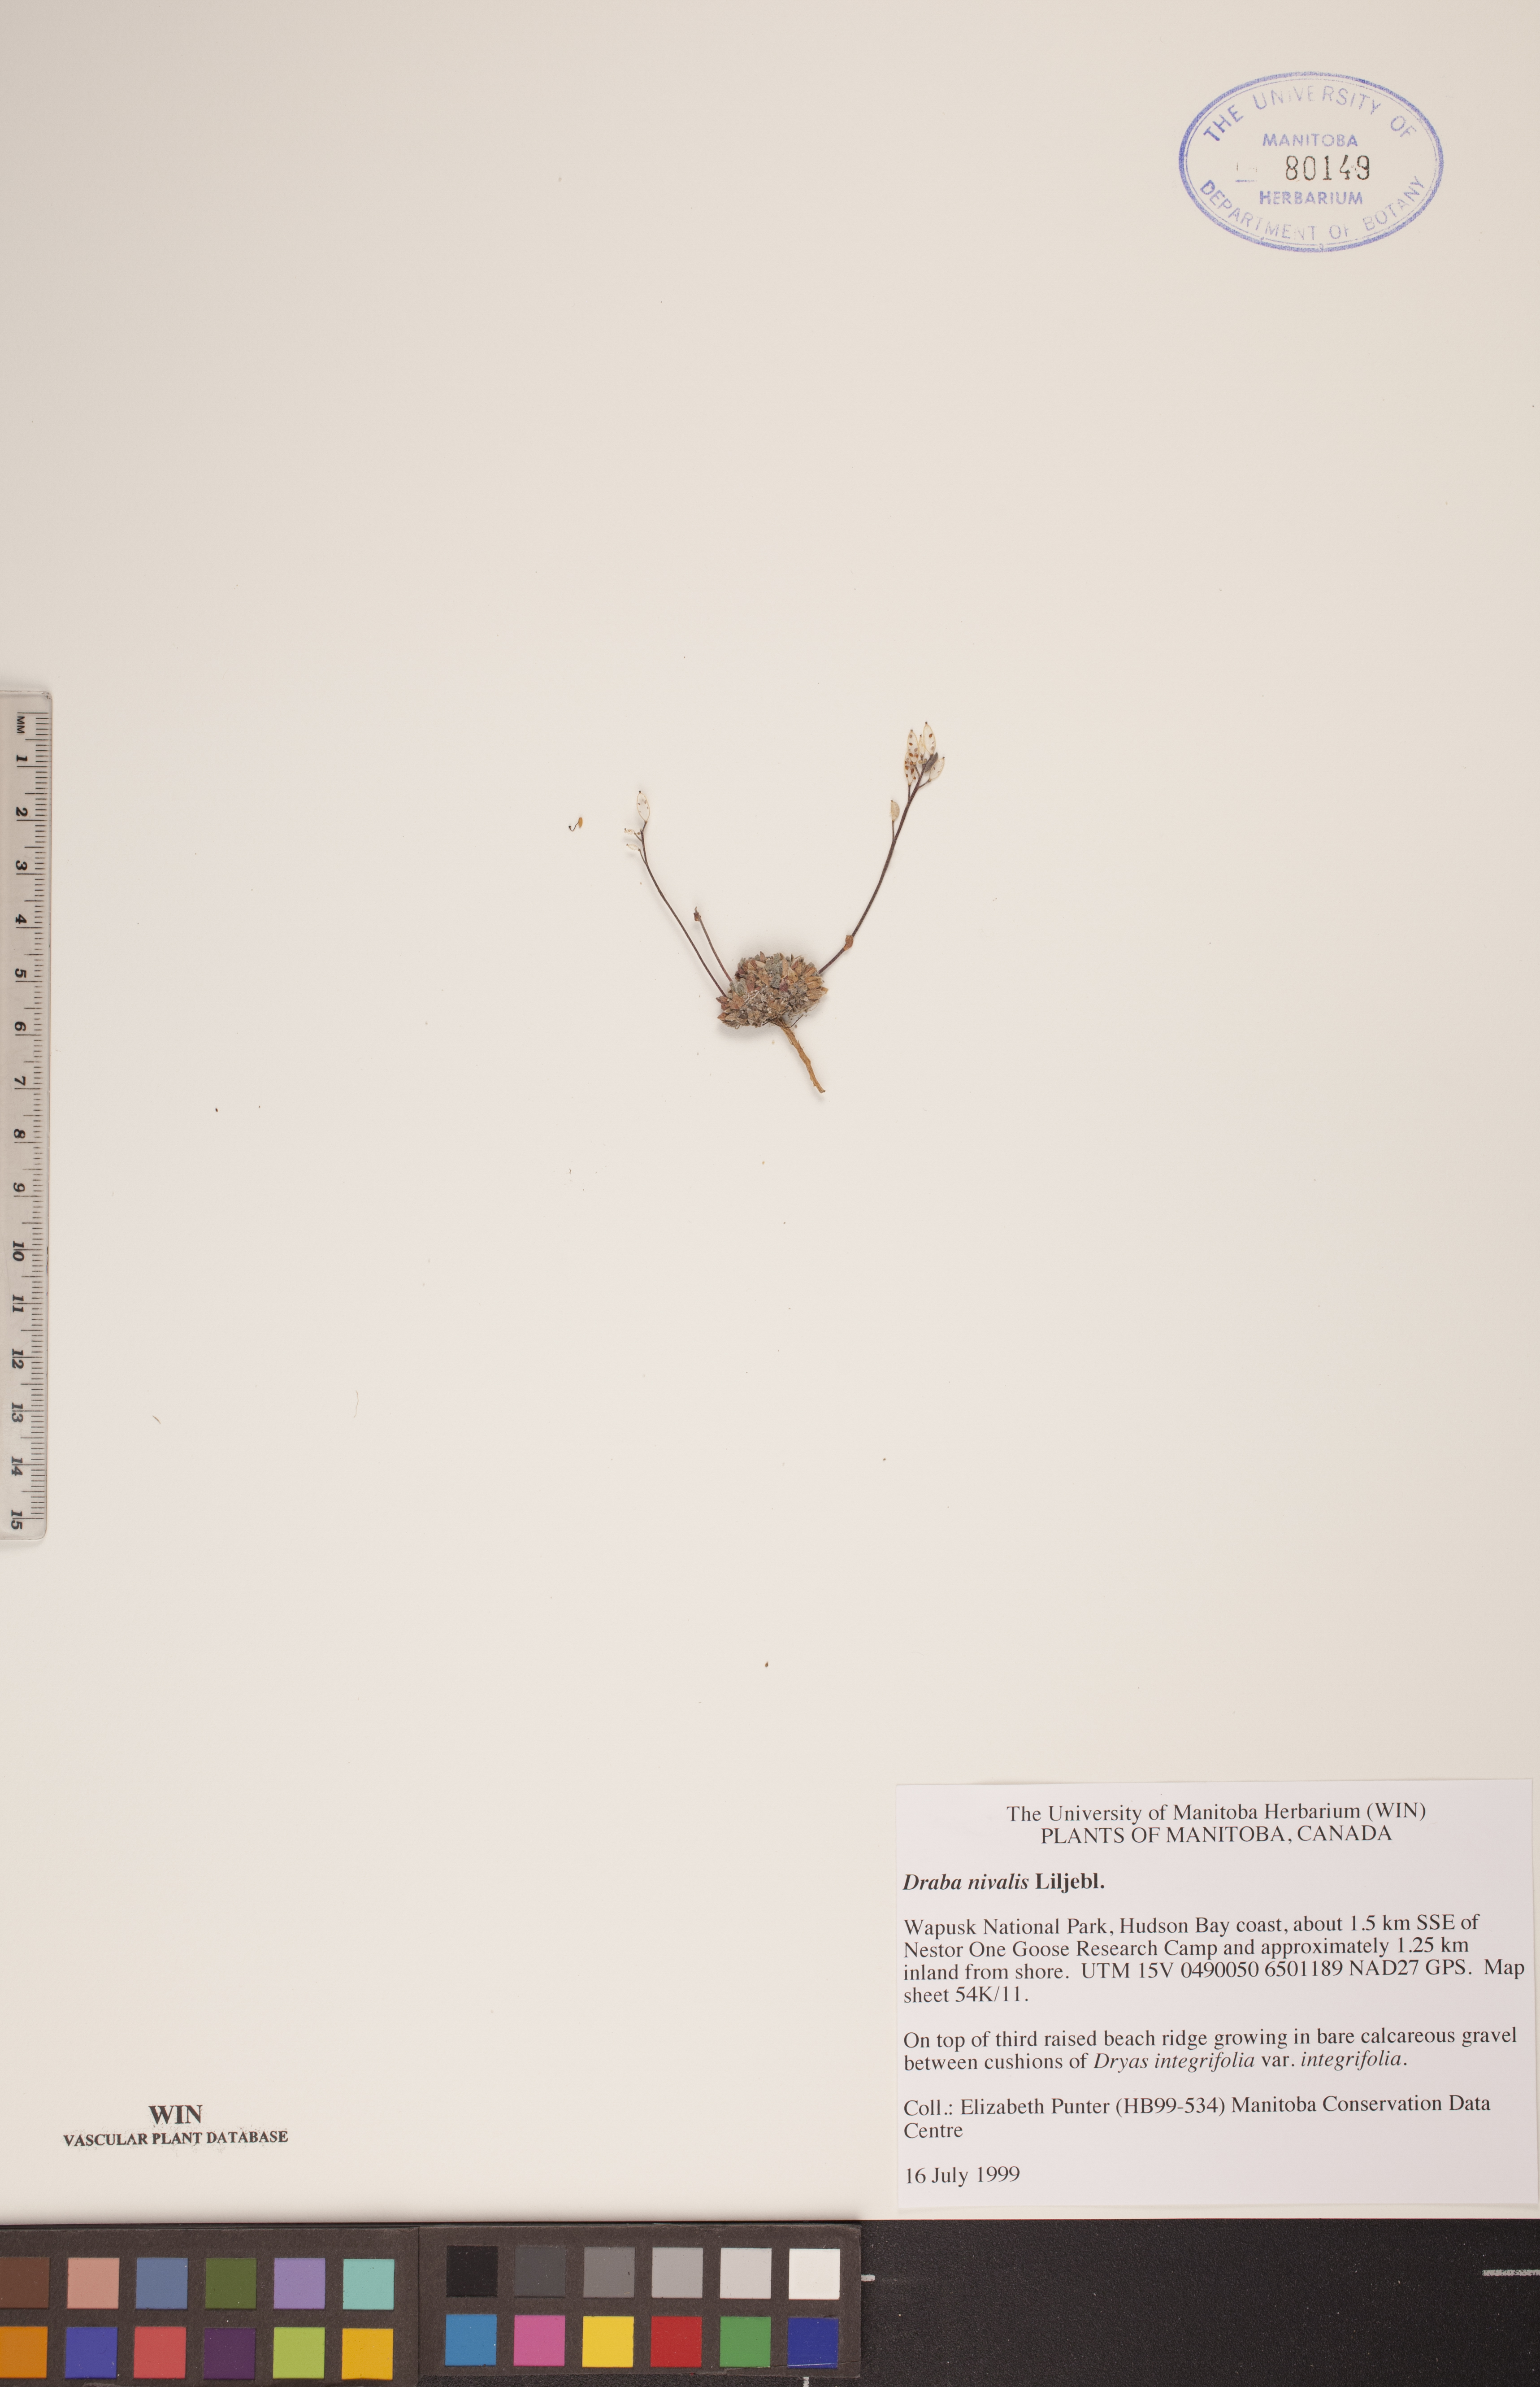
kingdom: Plantae
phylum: Tracheophyta
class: Magnoliopsida
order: Brassicales
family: Brassicaceae
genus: Draba
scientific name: Draba nivalis
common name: Snow draba
